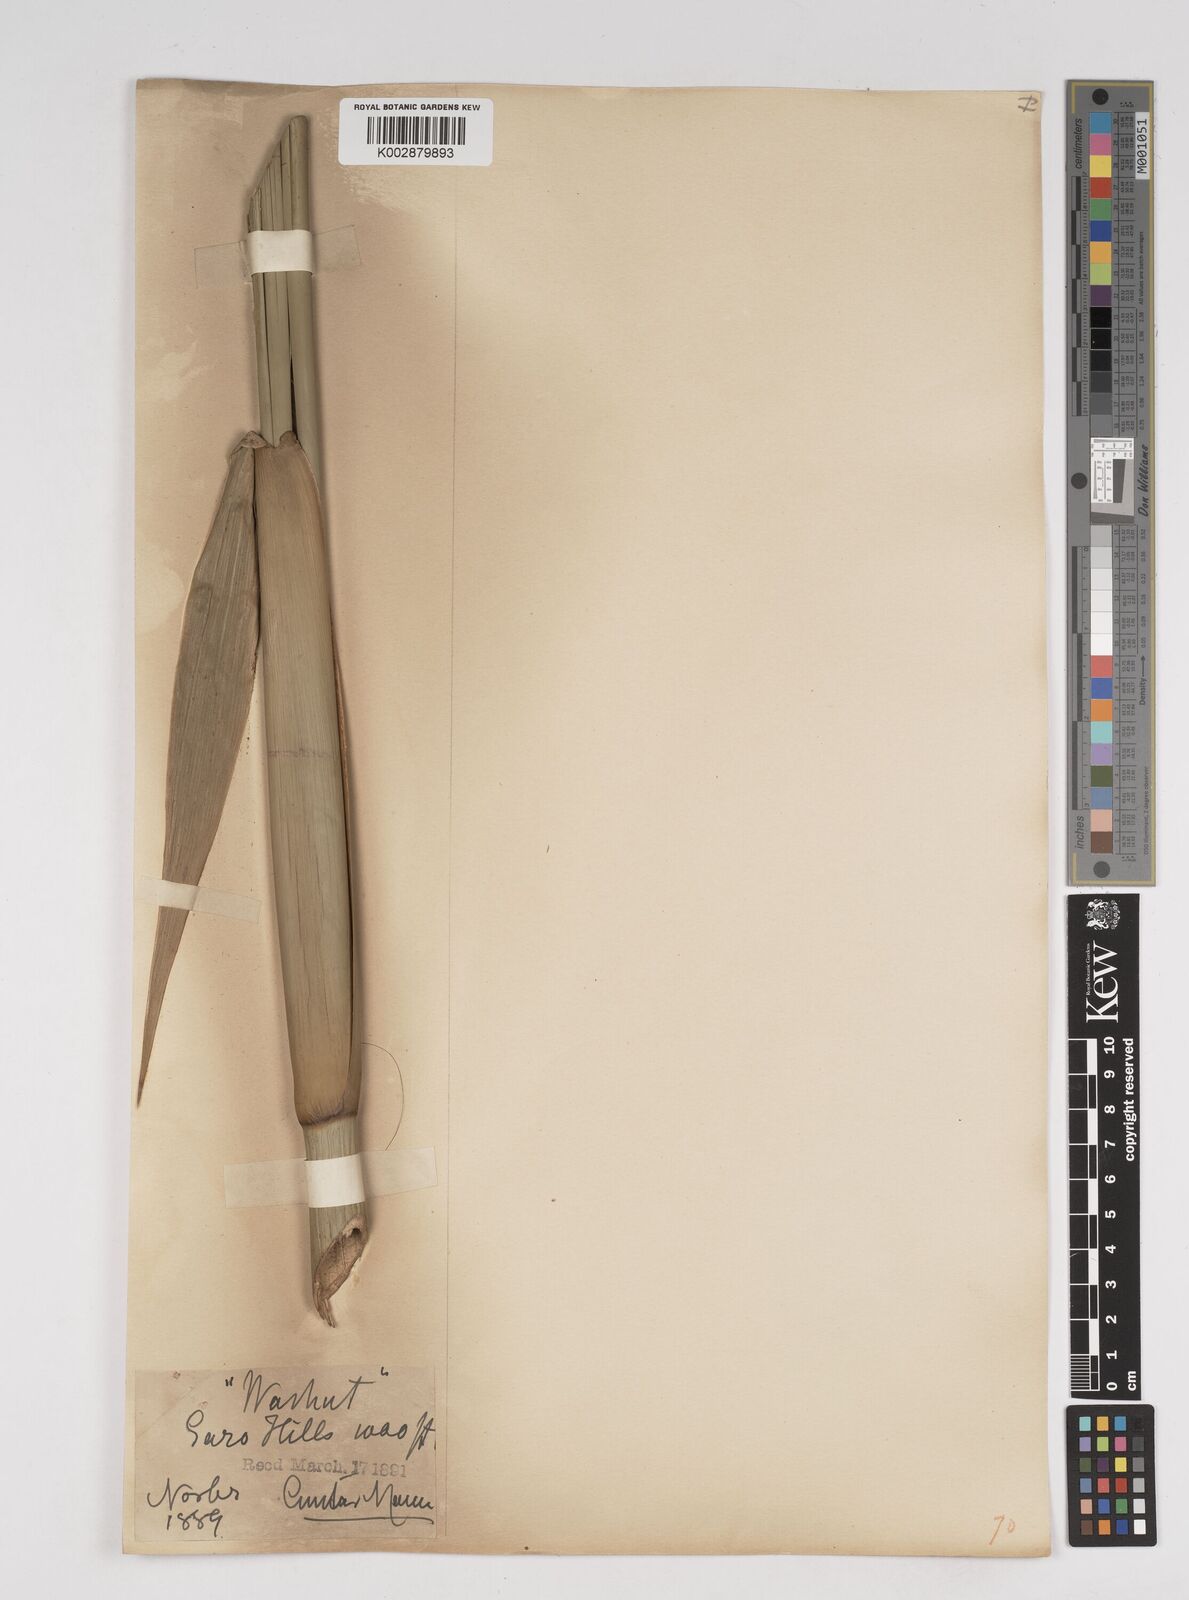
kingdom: Plantae
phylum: Tracheophyta
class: Liliopsida
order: Poales
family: Poaceae
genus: Gigantochloa
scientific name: Gigantochloa
